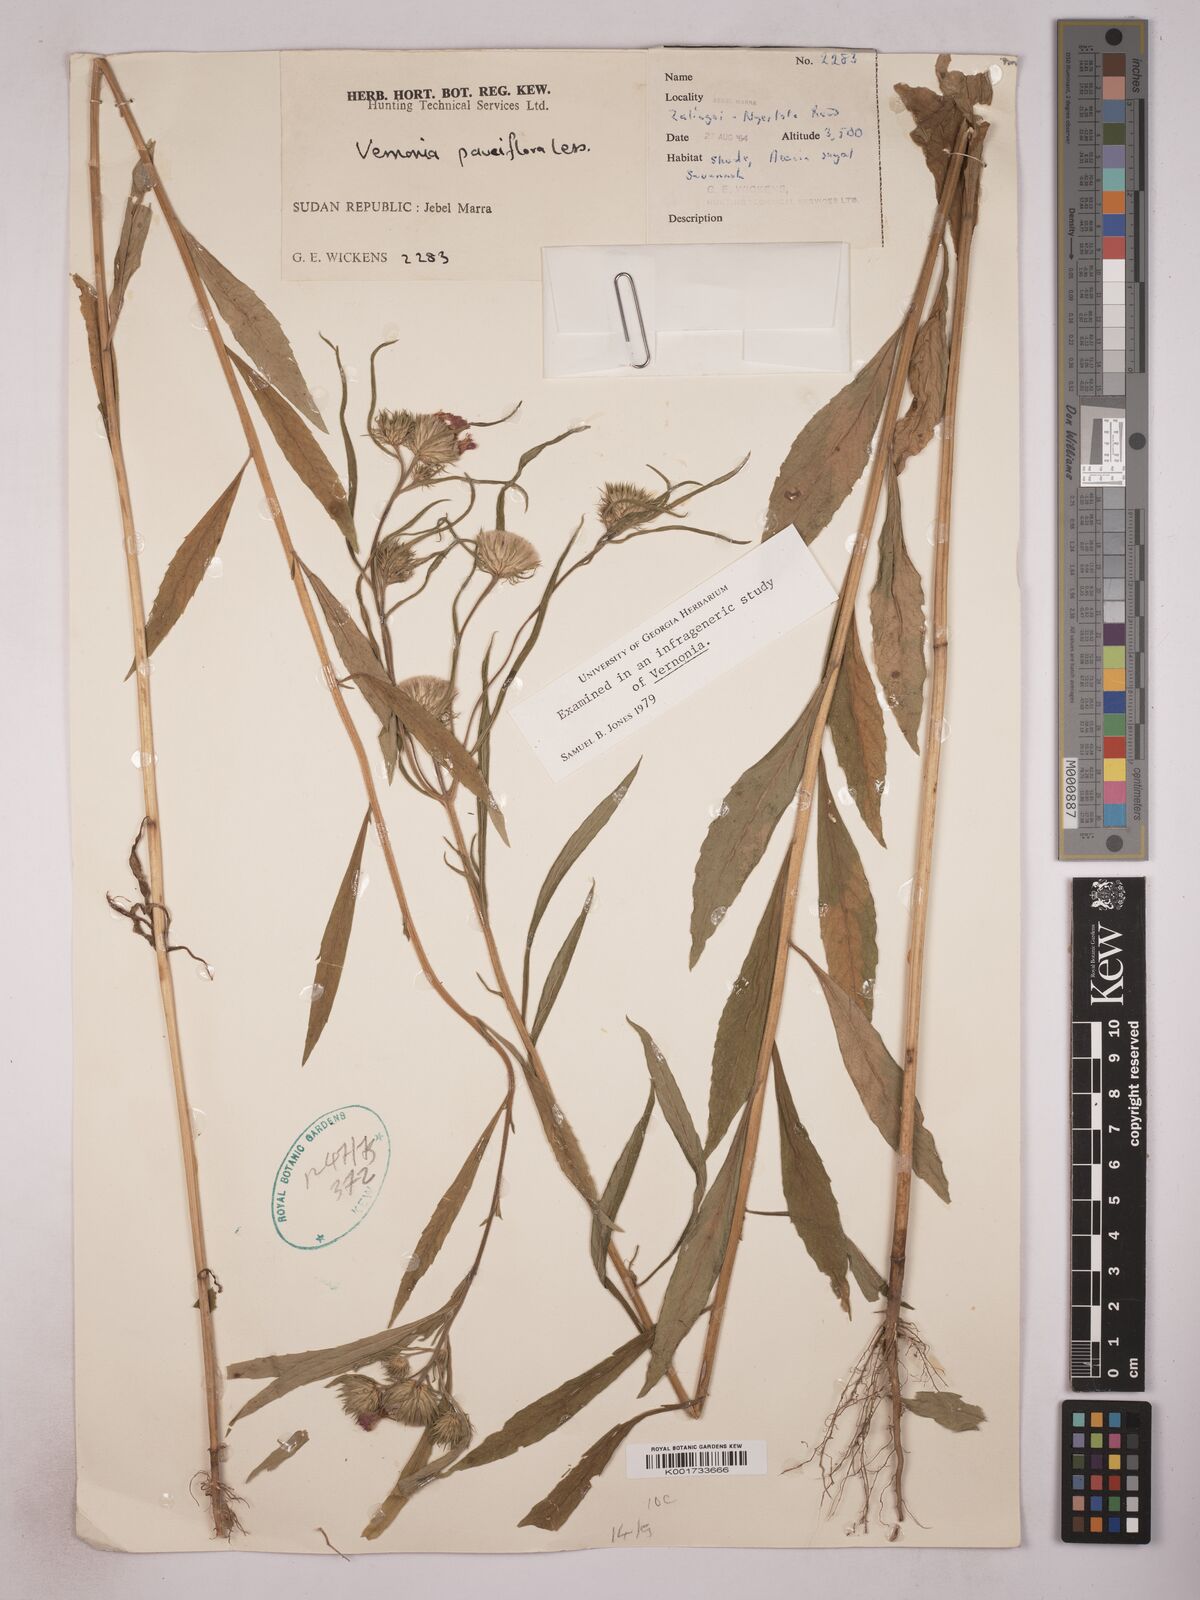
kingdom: Plantae
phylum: Tracheophyta
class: Magnoliopsida
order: Asterales
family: Asteraceae
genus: Vernonia
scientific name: Vernonia
